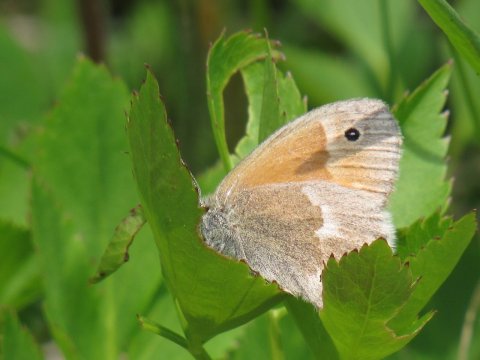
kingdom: Animalia
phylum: Arthropoda
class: Insecta
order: Lepidoptera
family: Nymphalidae
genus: Coenonympha
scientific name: Coenonympha tullia
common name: Large Heath
